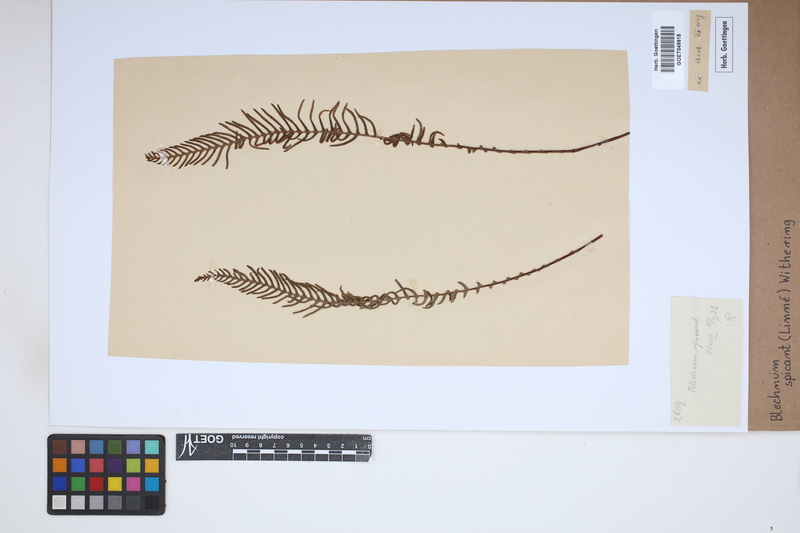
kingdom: Plantae
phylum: Tracheophyta
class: Polypodiopsida
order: Polypodiales
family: Blechnaceae
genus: Struthiopteris
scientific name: Struthiopteris spicant
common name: Deer fern
